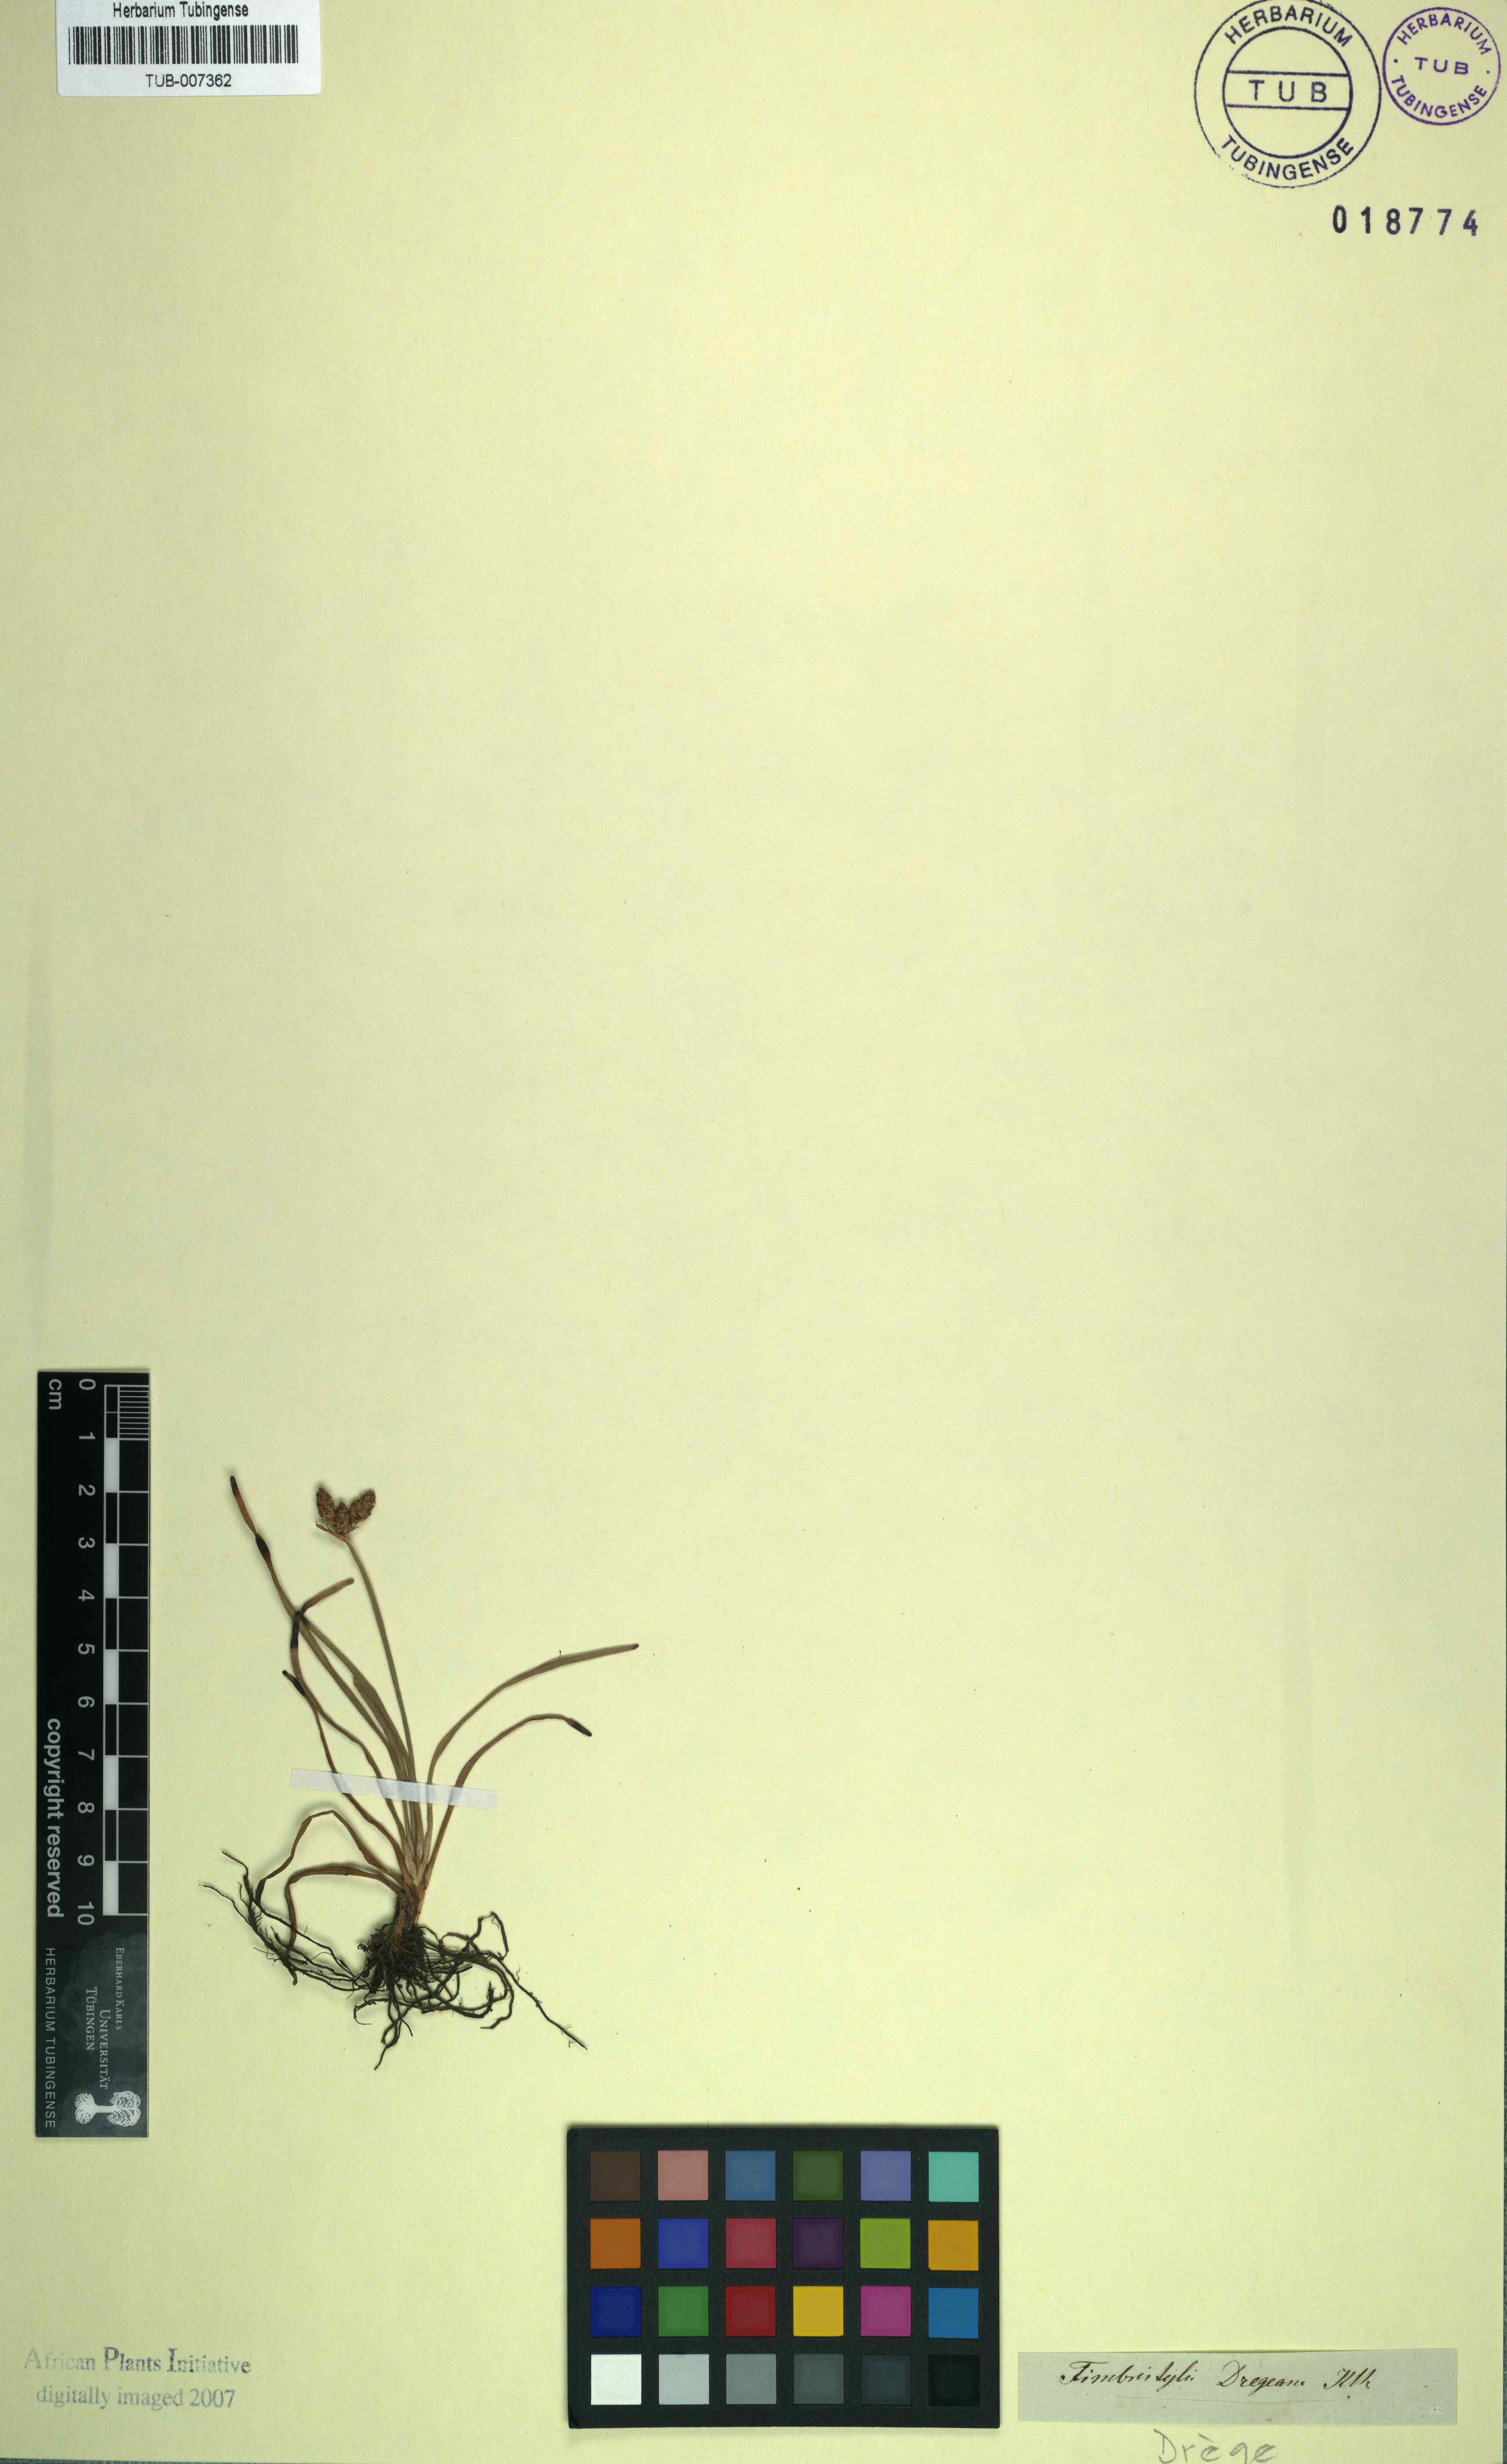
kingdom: Plantae
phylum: Tracheophyta
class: Liliopsida
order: Poales
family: Cyperaceae
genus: Fimbristylis
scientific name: Fimbristylis dichotoma
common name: Forked fimbry
